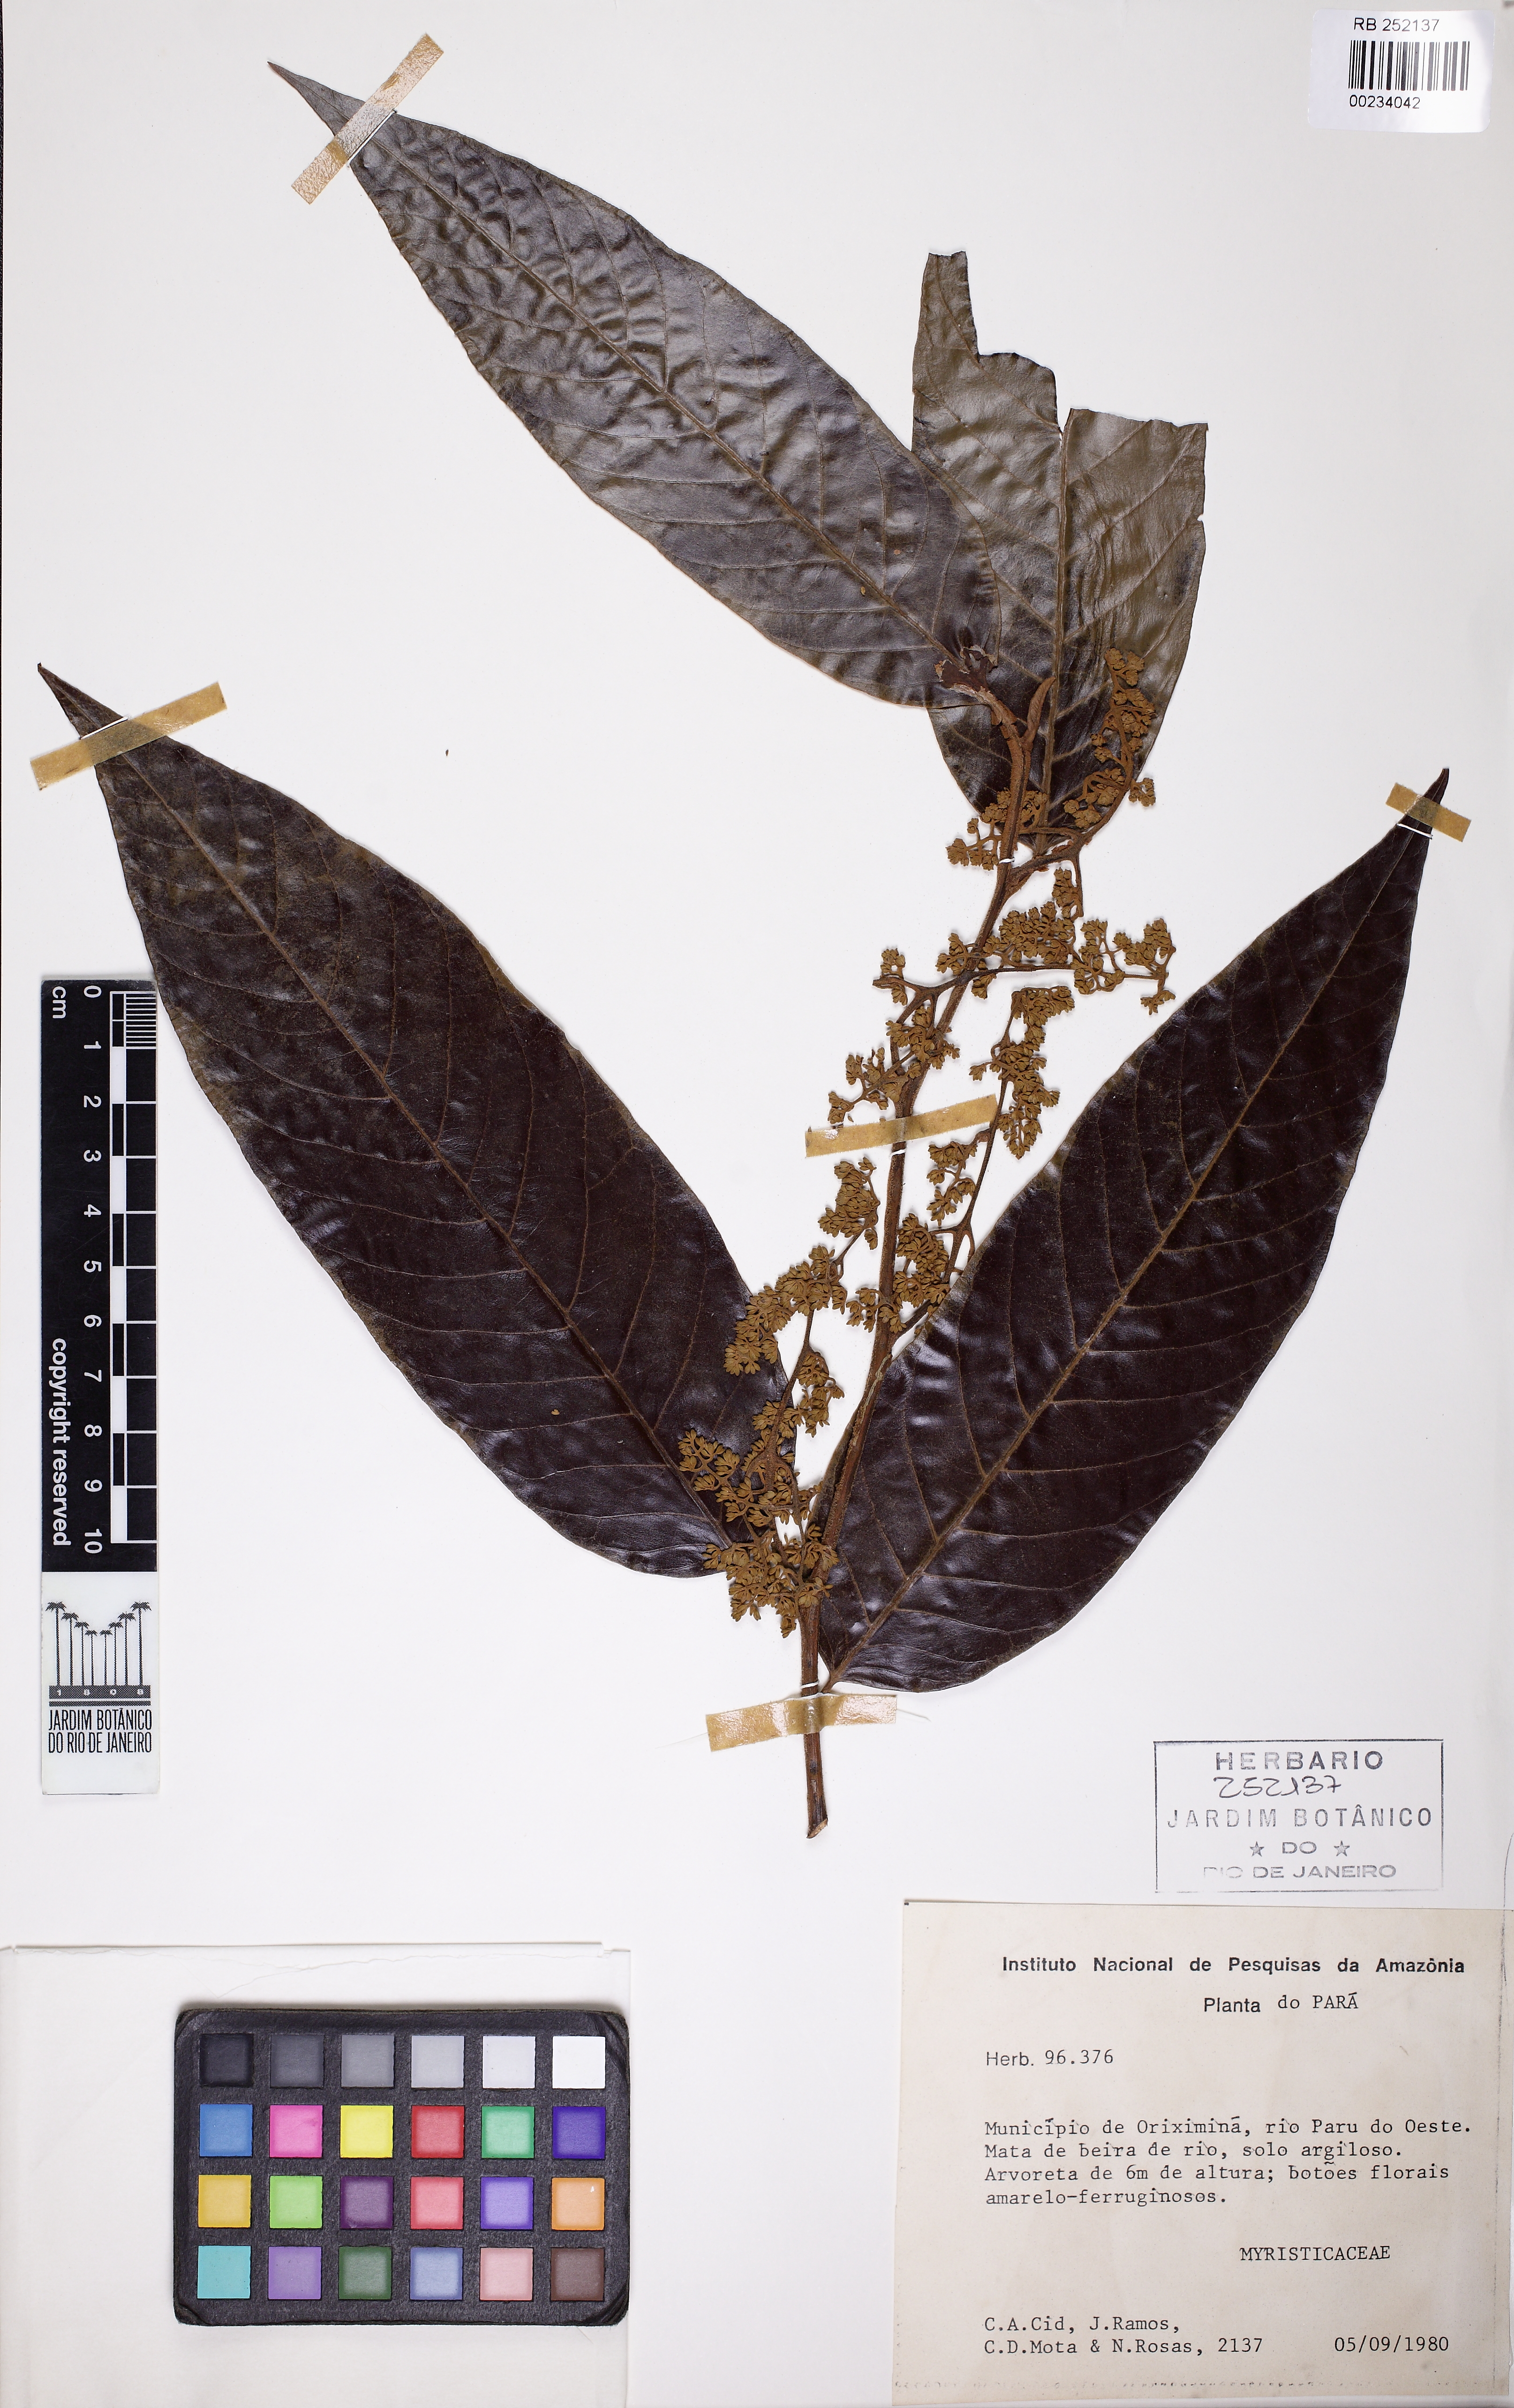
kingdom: Plantae
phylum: Tracheophyta
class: Magnoliopsida
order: Magnoliales
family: Myristicaceae
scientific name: Myristicaceae
